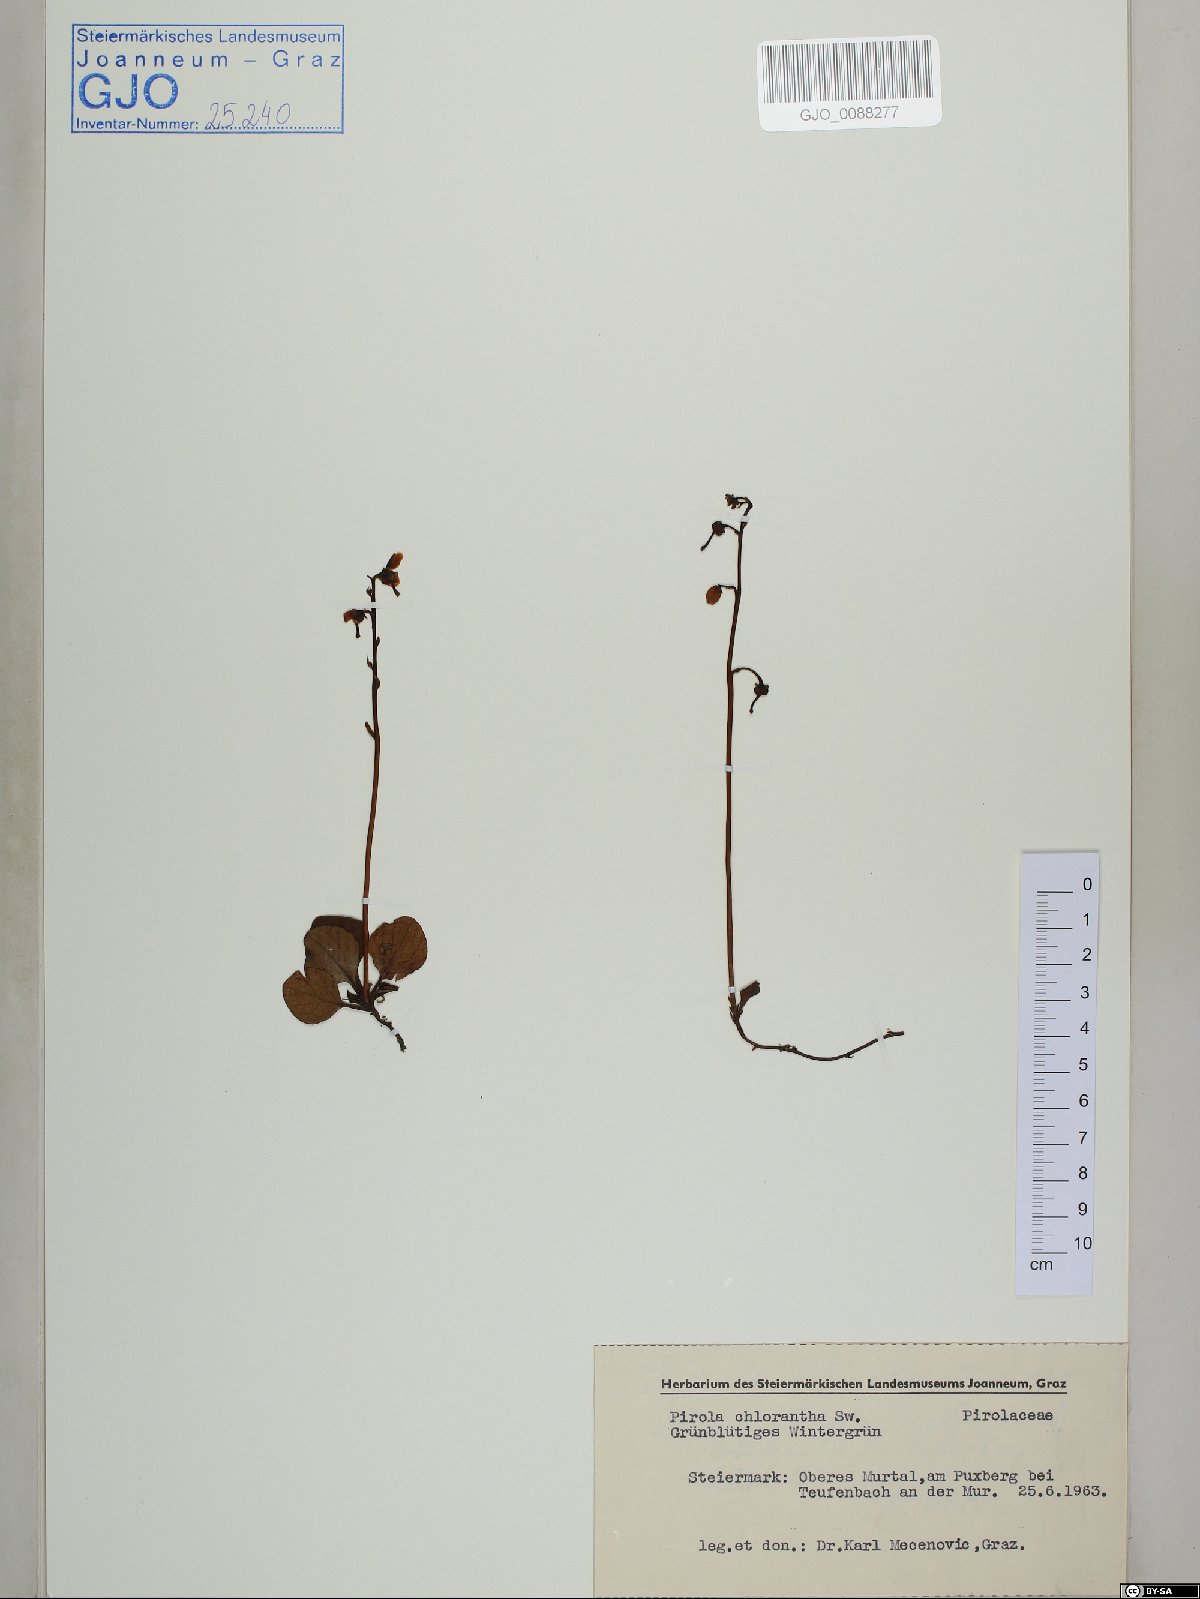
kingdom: Plantae
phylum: Tracheophyta
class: Magnoliopsida
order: Ericales
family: Ericaceae
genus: Pyrola
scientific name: Pyrola chlorantha
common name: Green wintergreen
